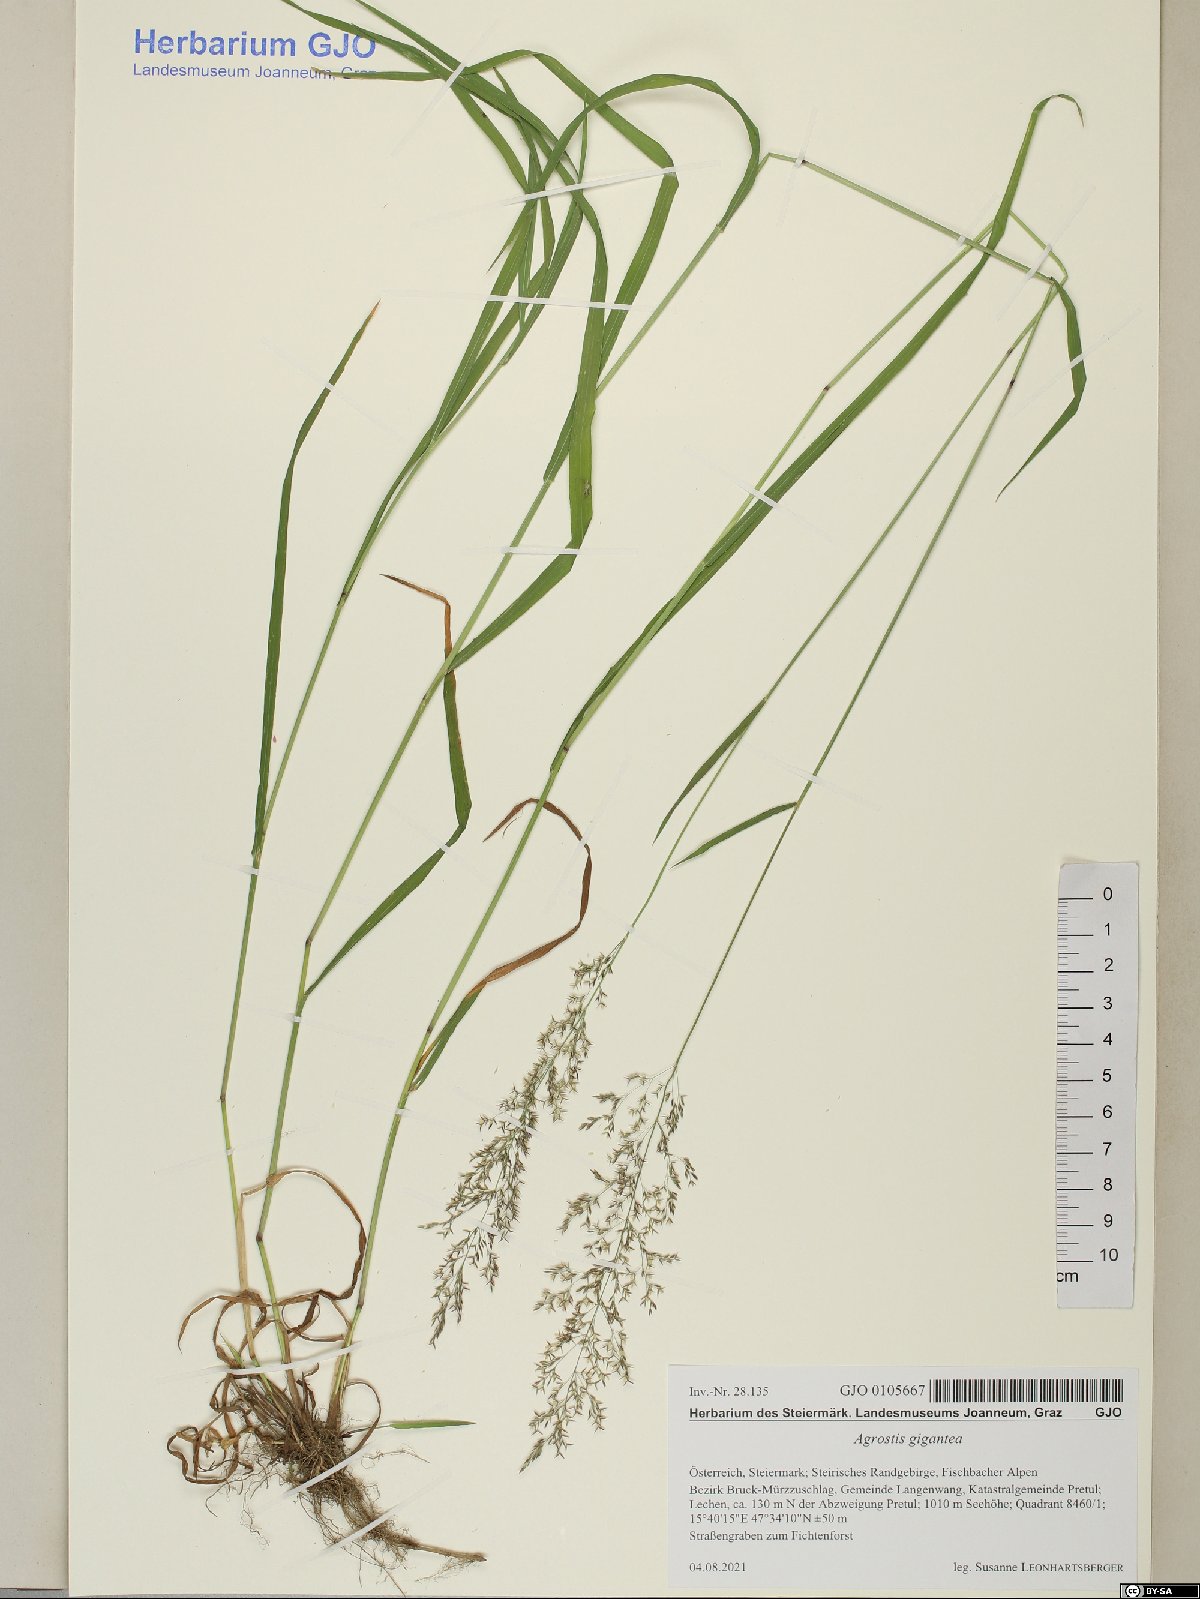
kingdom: Plantae
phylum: Tracheophyta
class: Liliopsida
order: Poales
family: Poaceae
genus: Agrostis
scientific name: Agrostis gigantea
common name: Black bent
